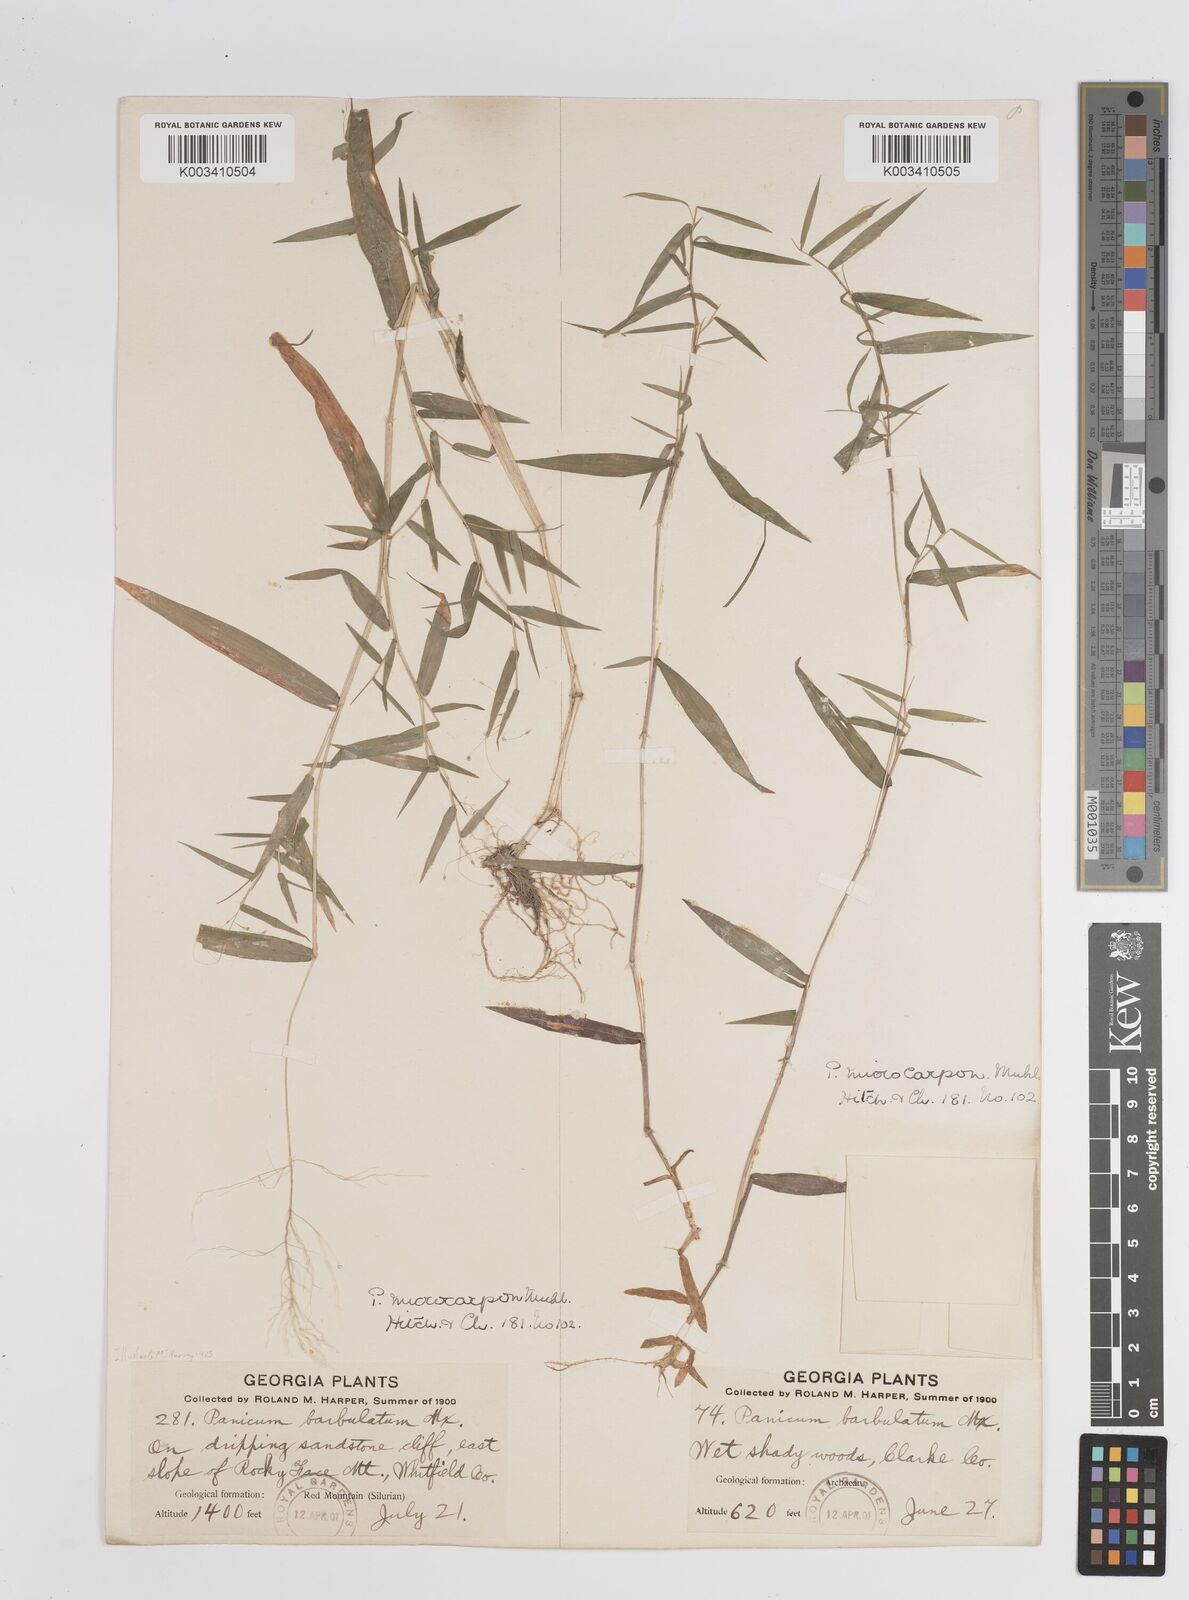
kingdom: Plantae
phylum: Tracheophyta
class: Liliopsida
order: Poales
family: Poaceae
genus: Dichanthelium
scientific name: Dichanthelium polyanthes
